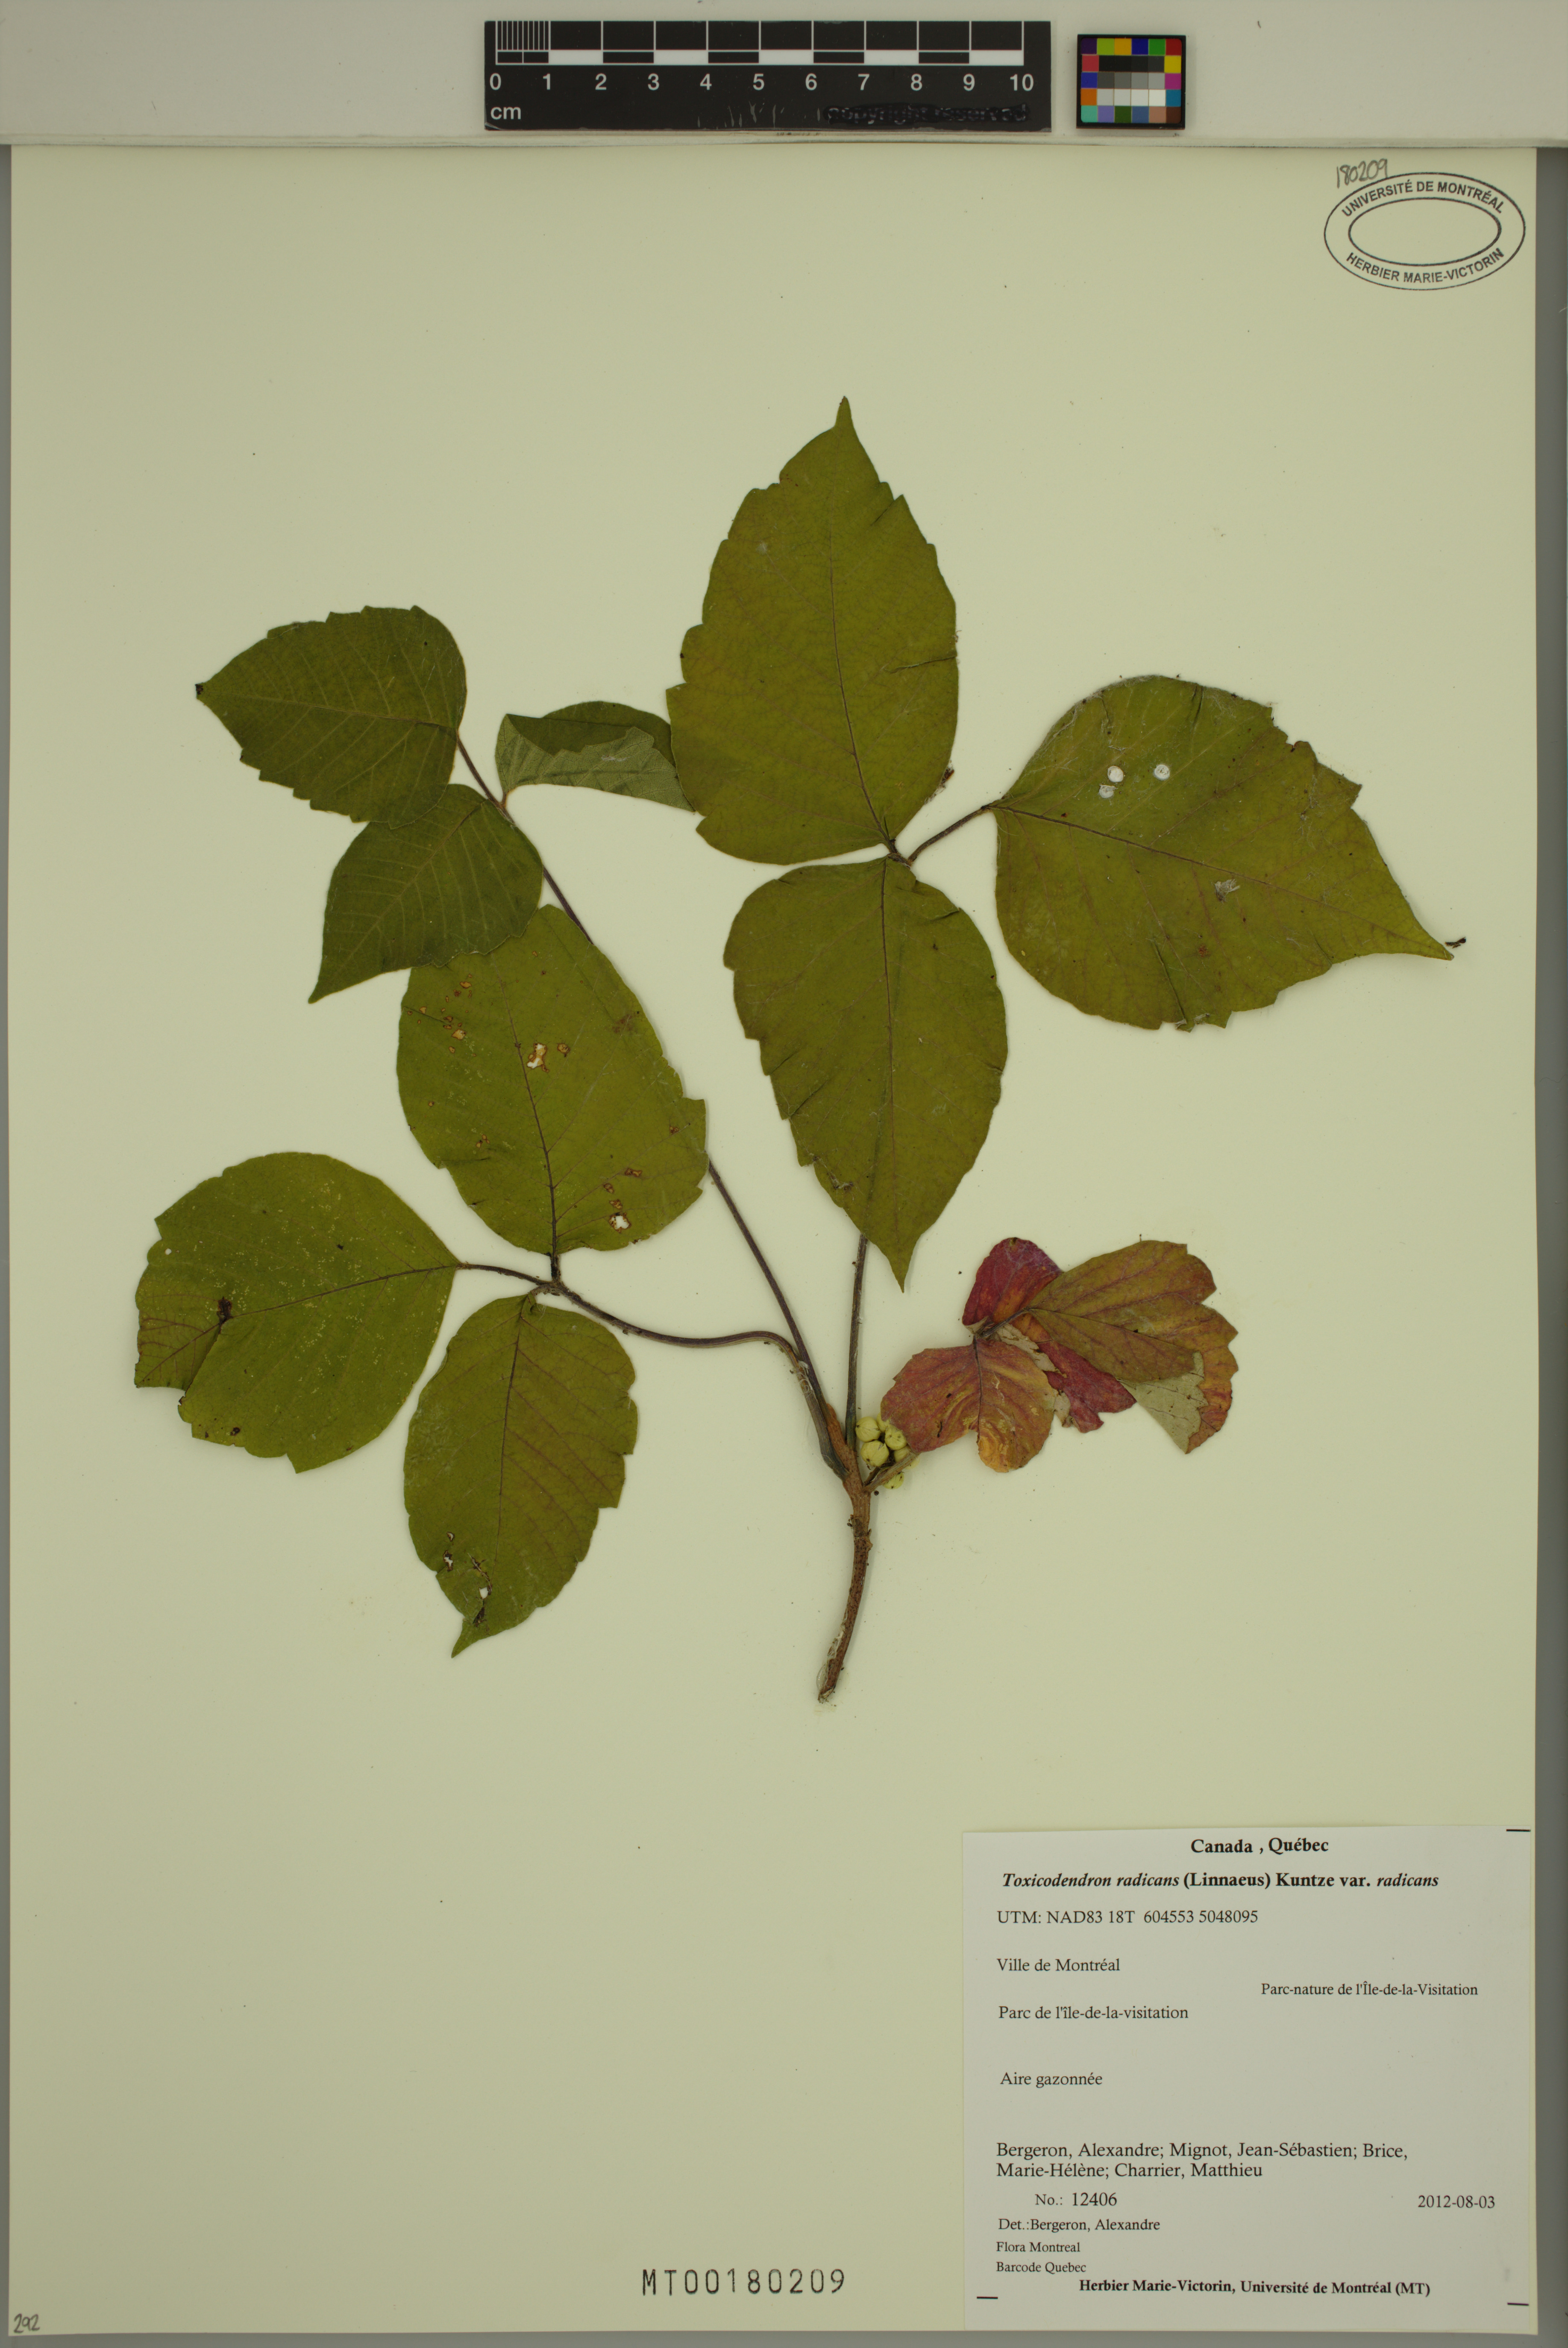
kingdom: Plantae
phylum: Tracheophyta
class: Magnoliopsida
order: Sapindales
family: Anacardiaceae
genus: Toxicodendron
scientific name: Toxicodendron radicans
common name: Poison ivy
